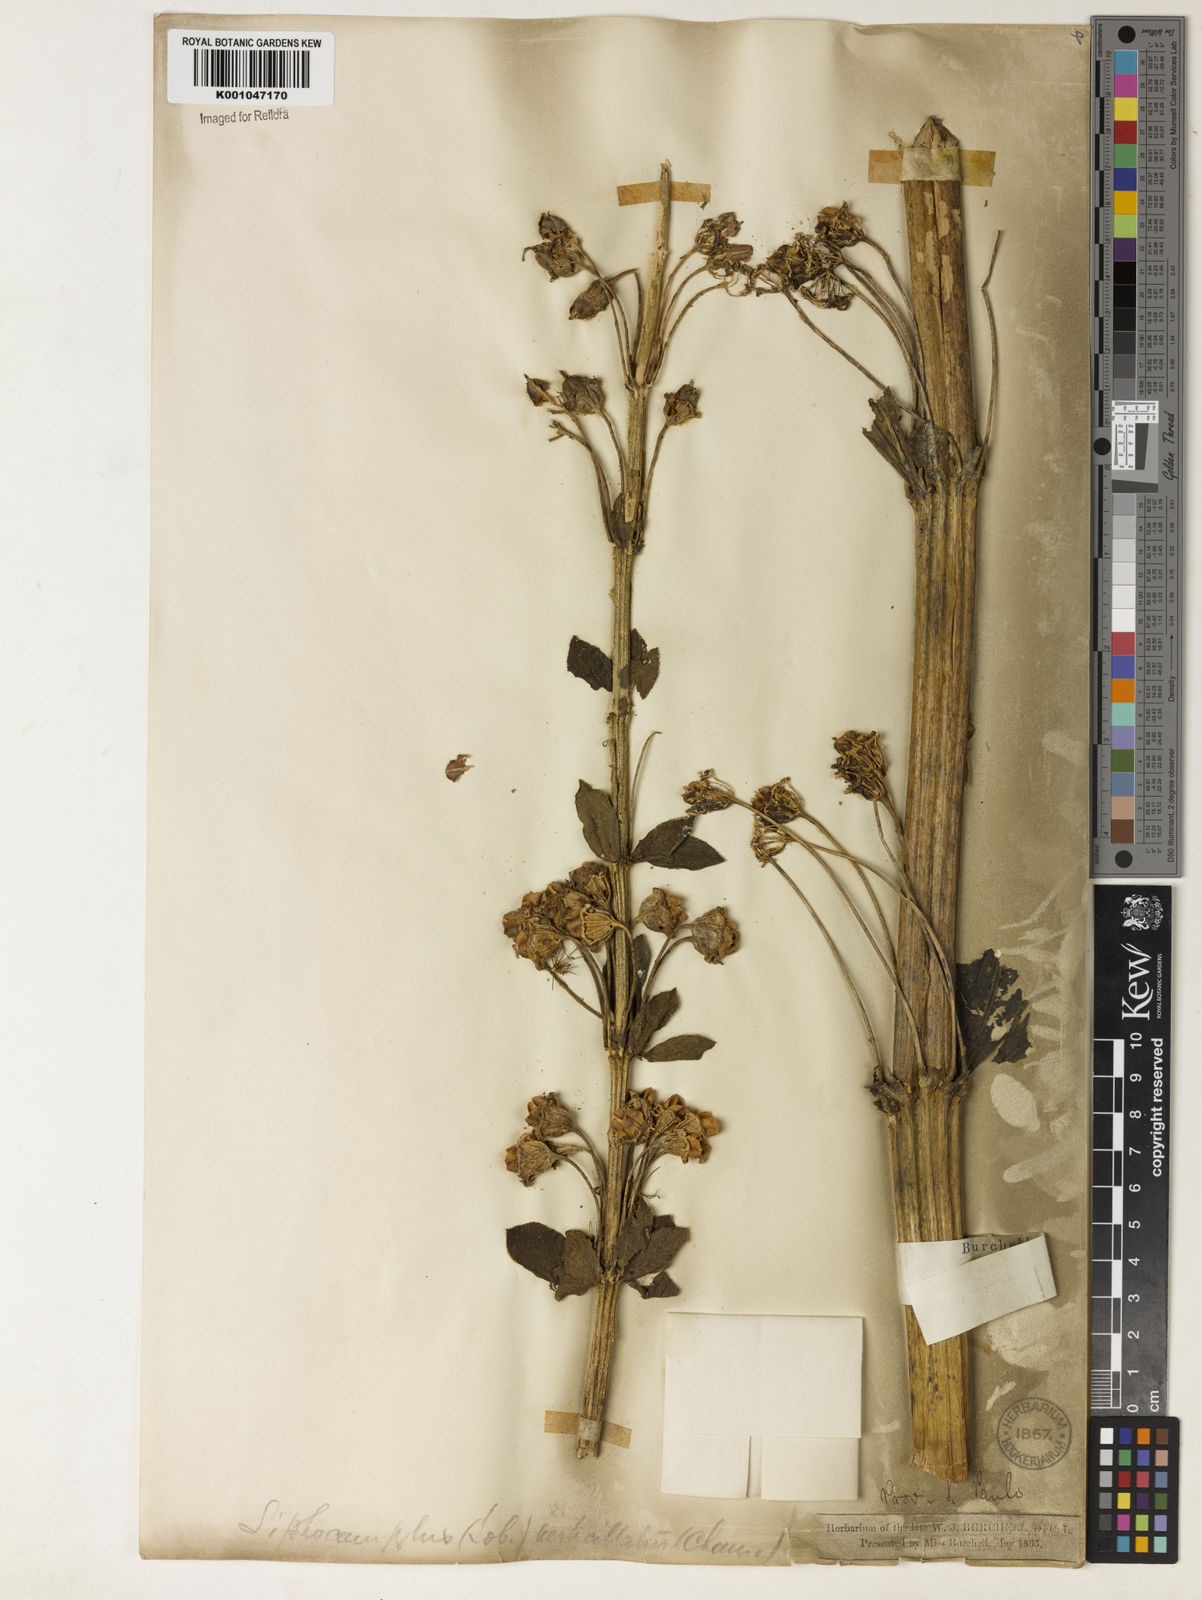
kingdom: Plantae
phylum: Tracheophyta
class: Magnoliopsida
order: Asterales
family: Campanulaceae
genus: Siphocampylus
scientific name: Siphocampylus verticillatus
